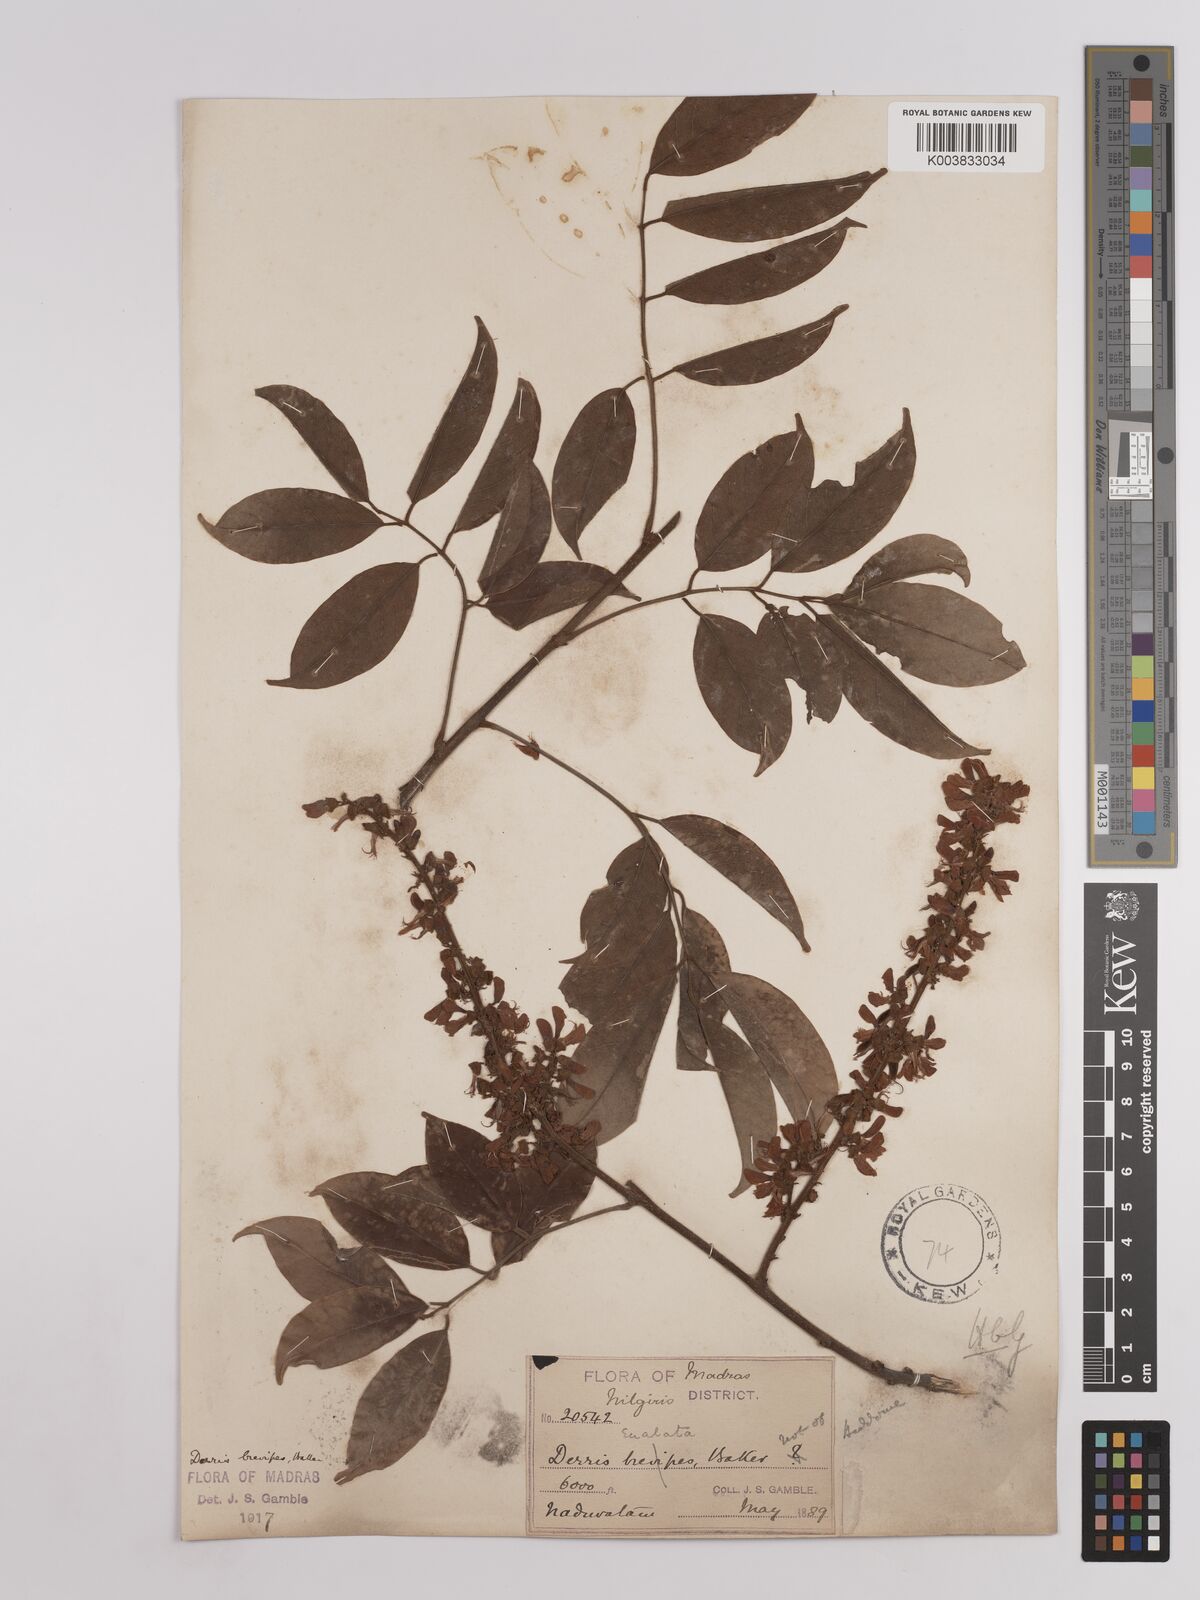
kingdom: Plantae
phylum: Tracheophyta
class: Magnoliopsida
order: Fabales
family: Fabaceae
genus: Derris
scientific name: Derris brevipes
